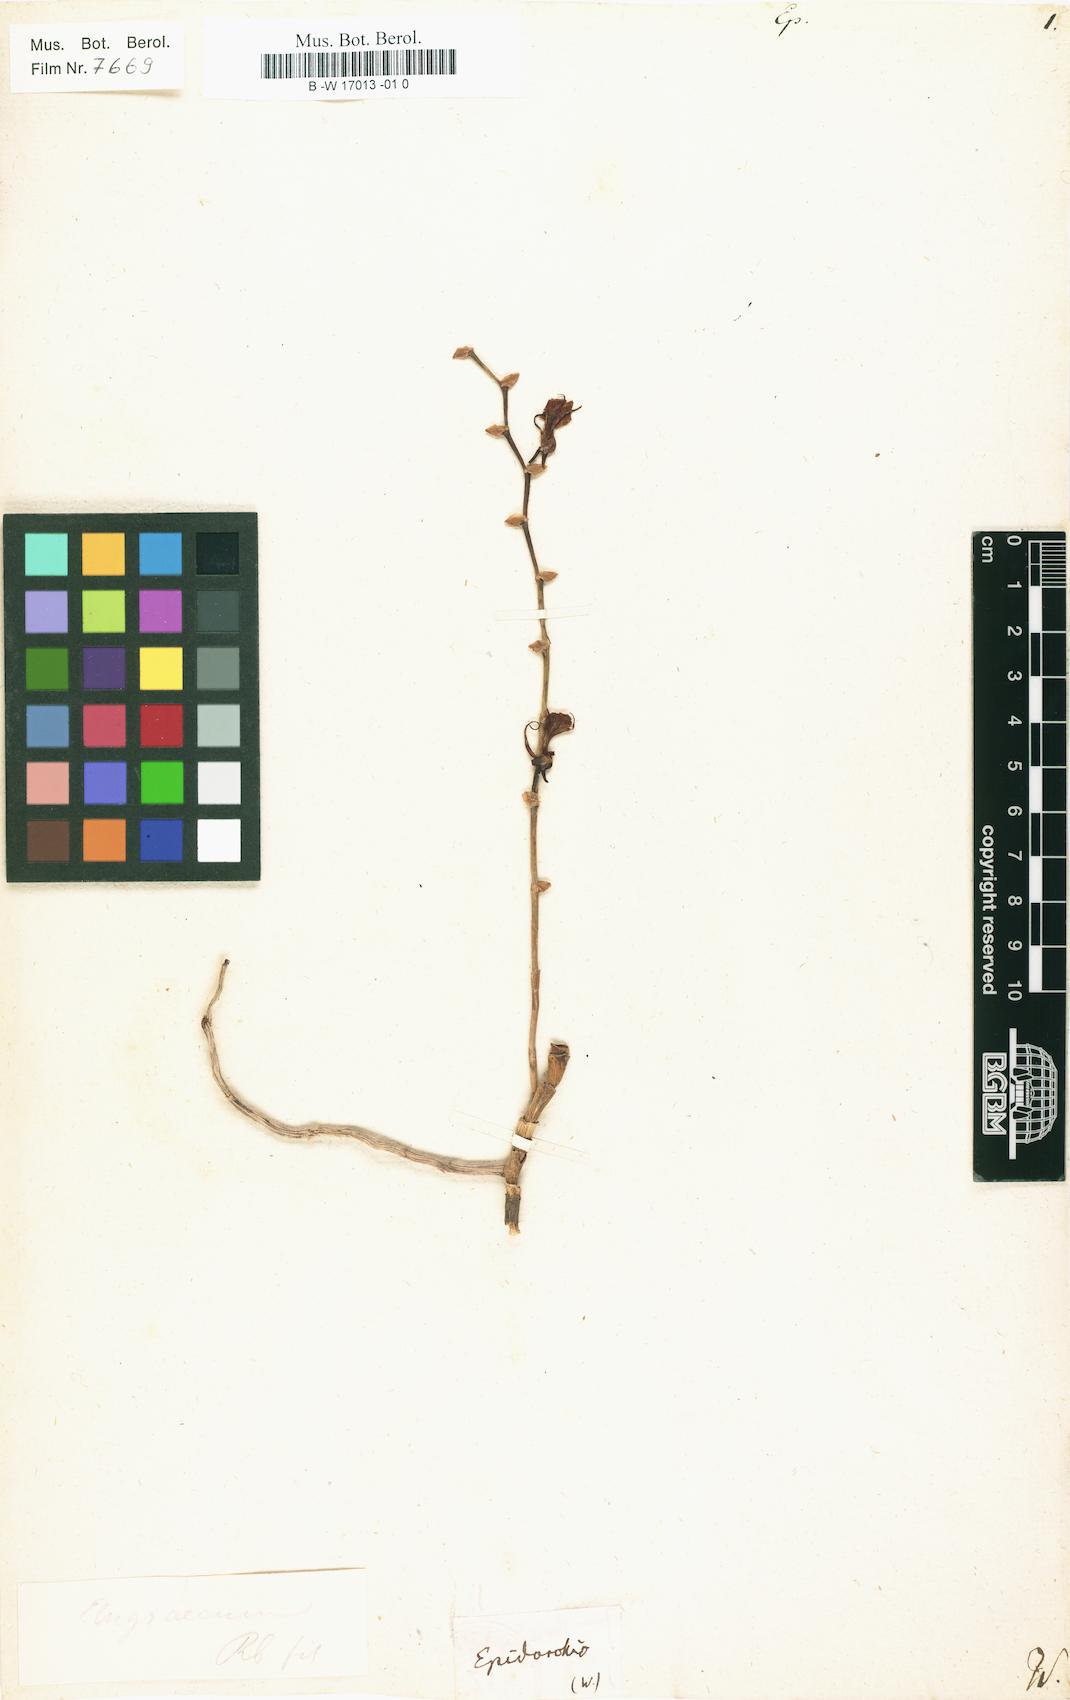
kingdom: Plantae
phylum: Tracheophyta
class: Liliopsida
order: Asparagales
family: Orchidaceae
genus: Epidorchis
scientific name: Epidorchis
